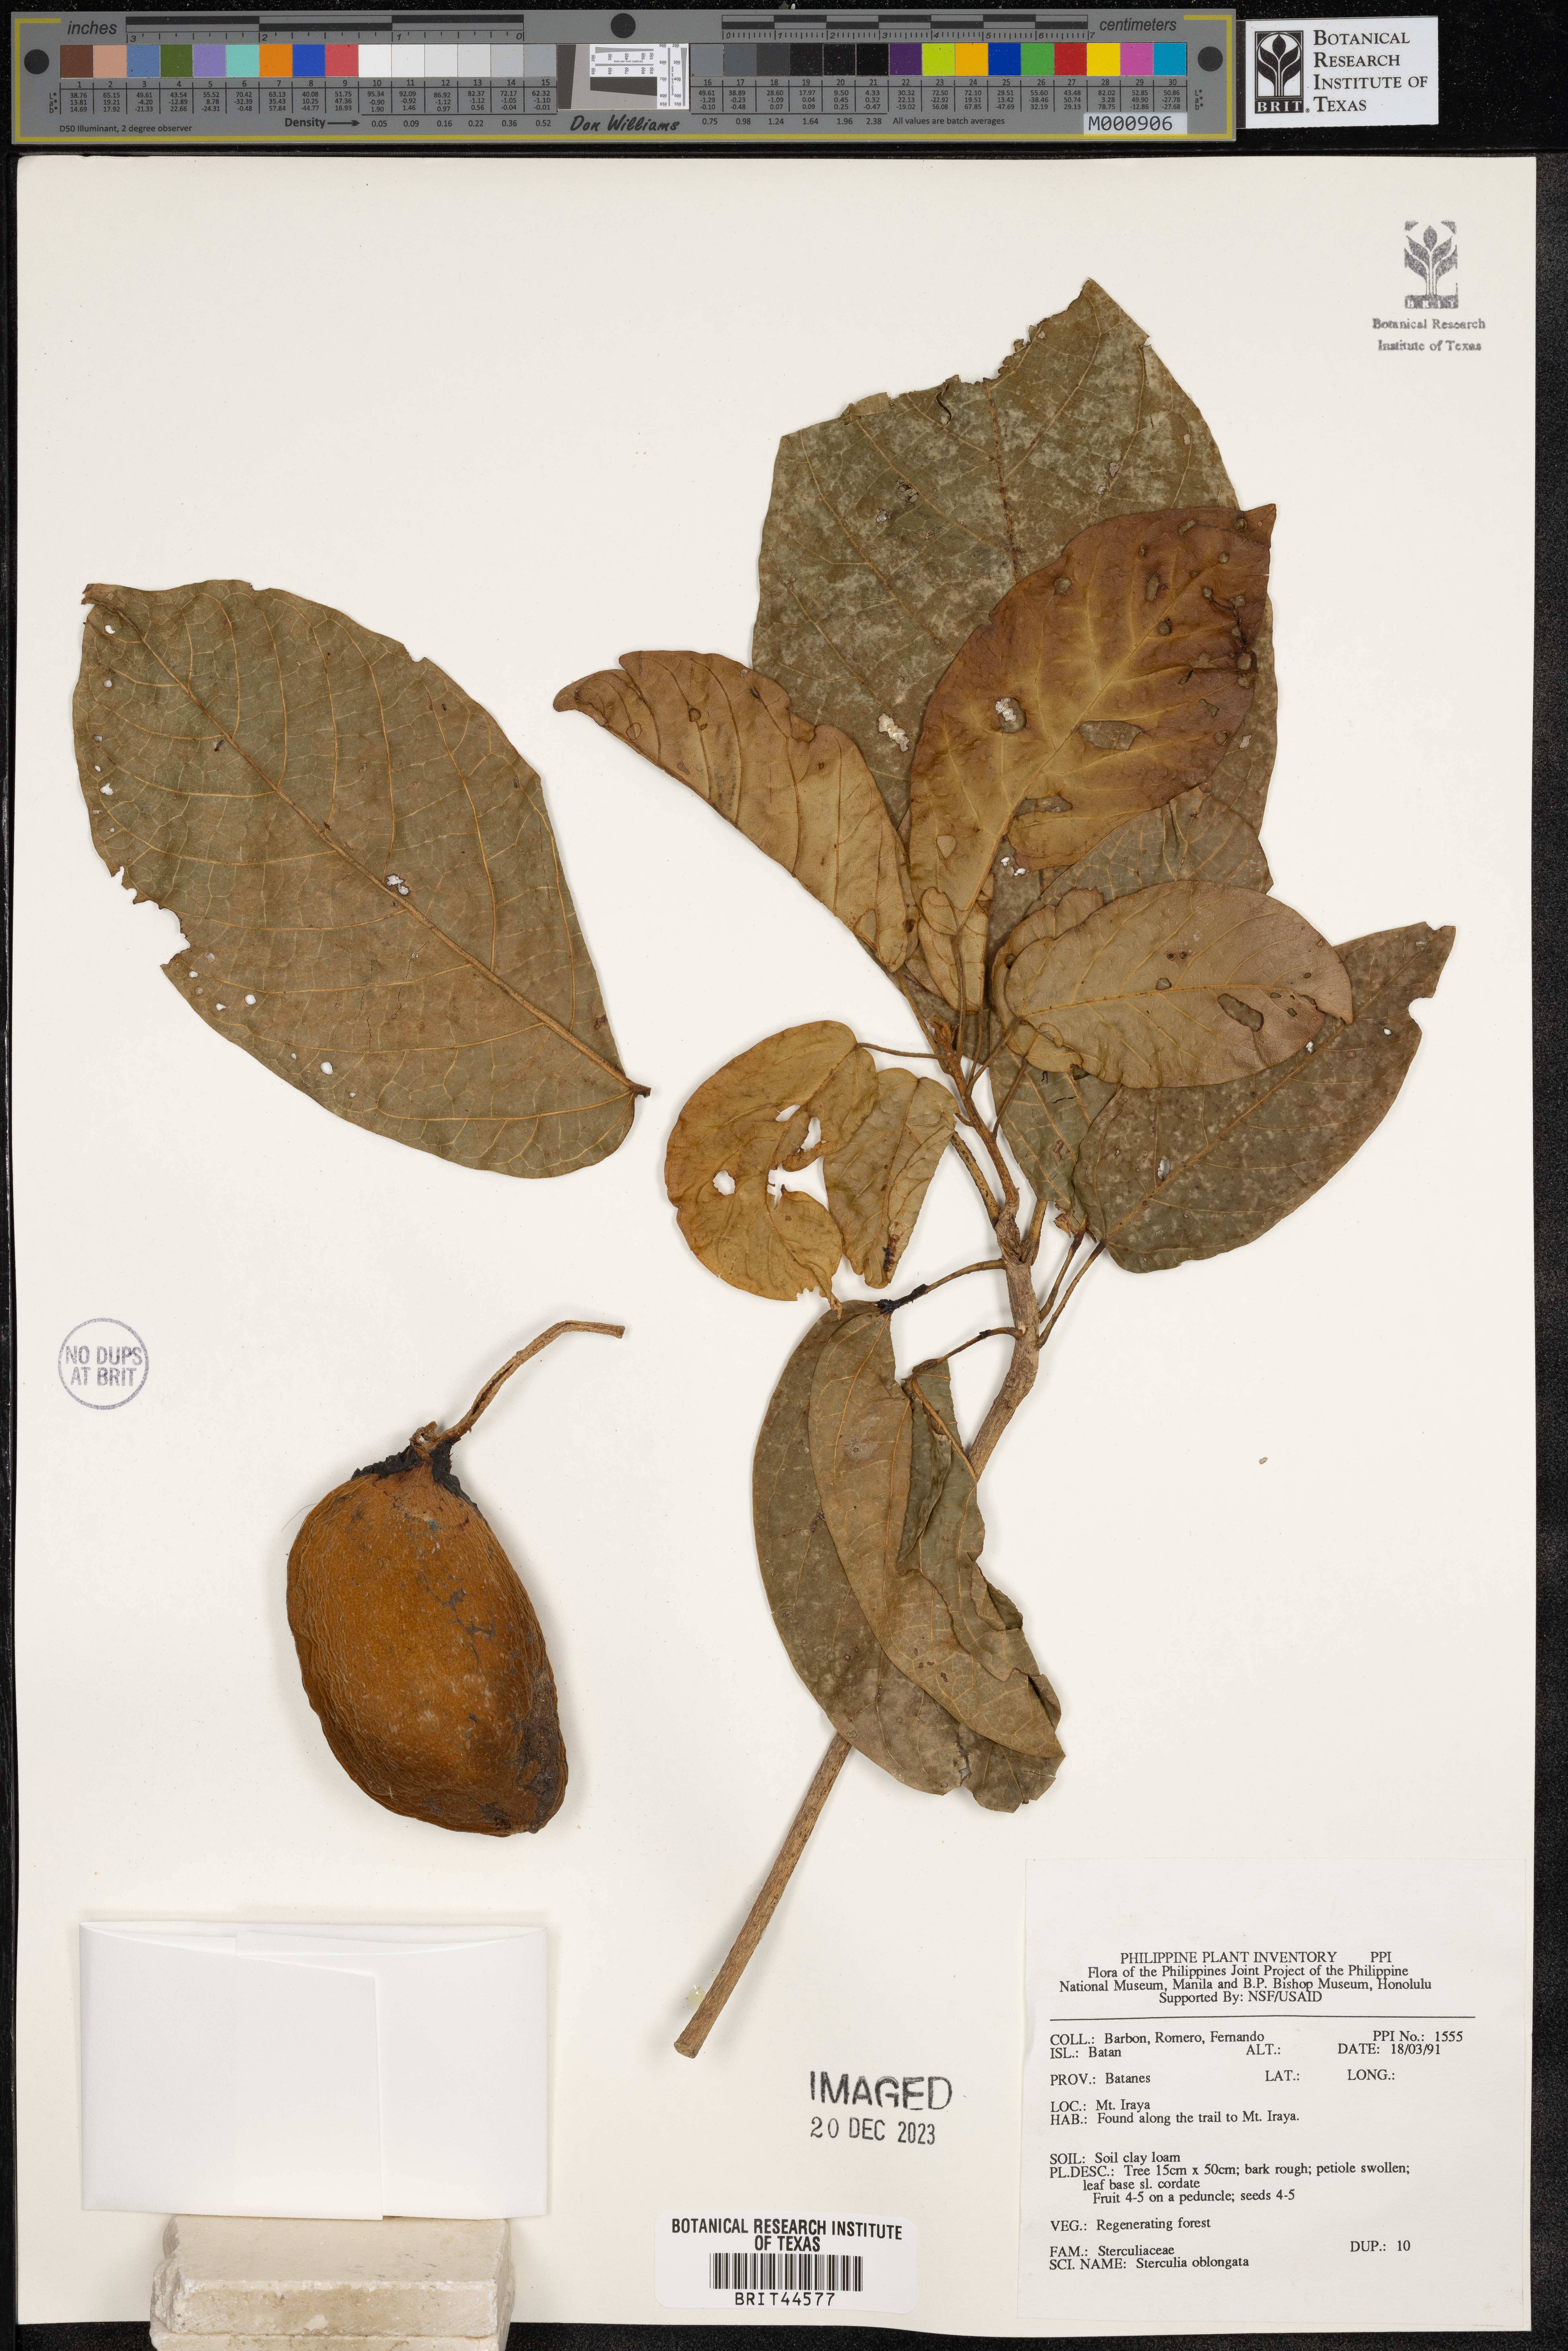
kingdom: Plantae
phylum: Tracheophyta
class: Magnoliopsida
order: Malvales
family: Malvaceae
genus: Sterculia
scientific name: Sterculia oblongata
